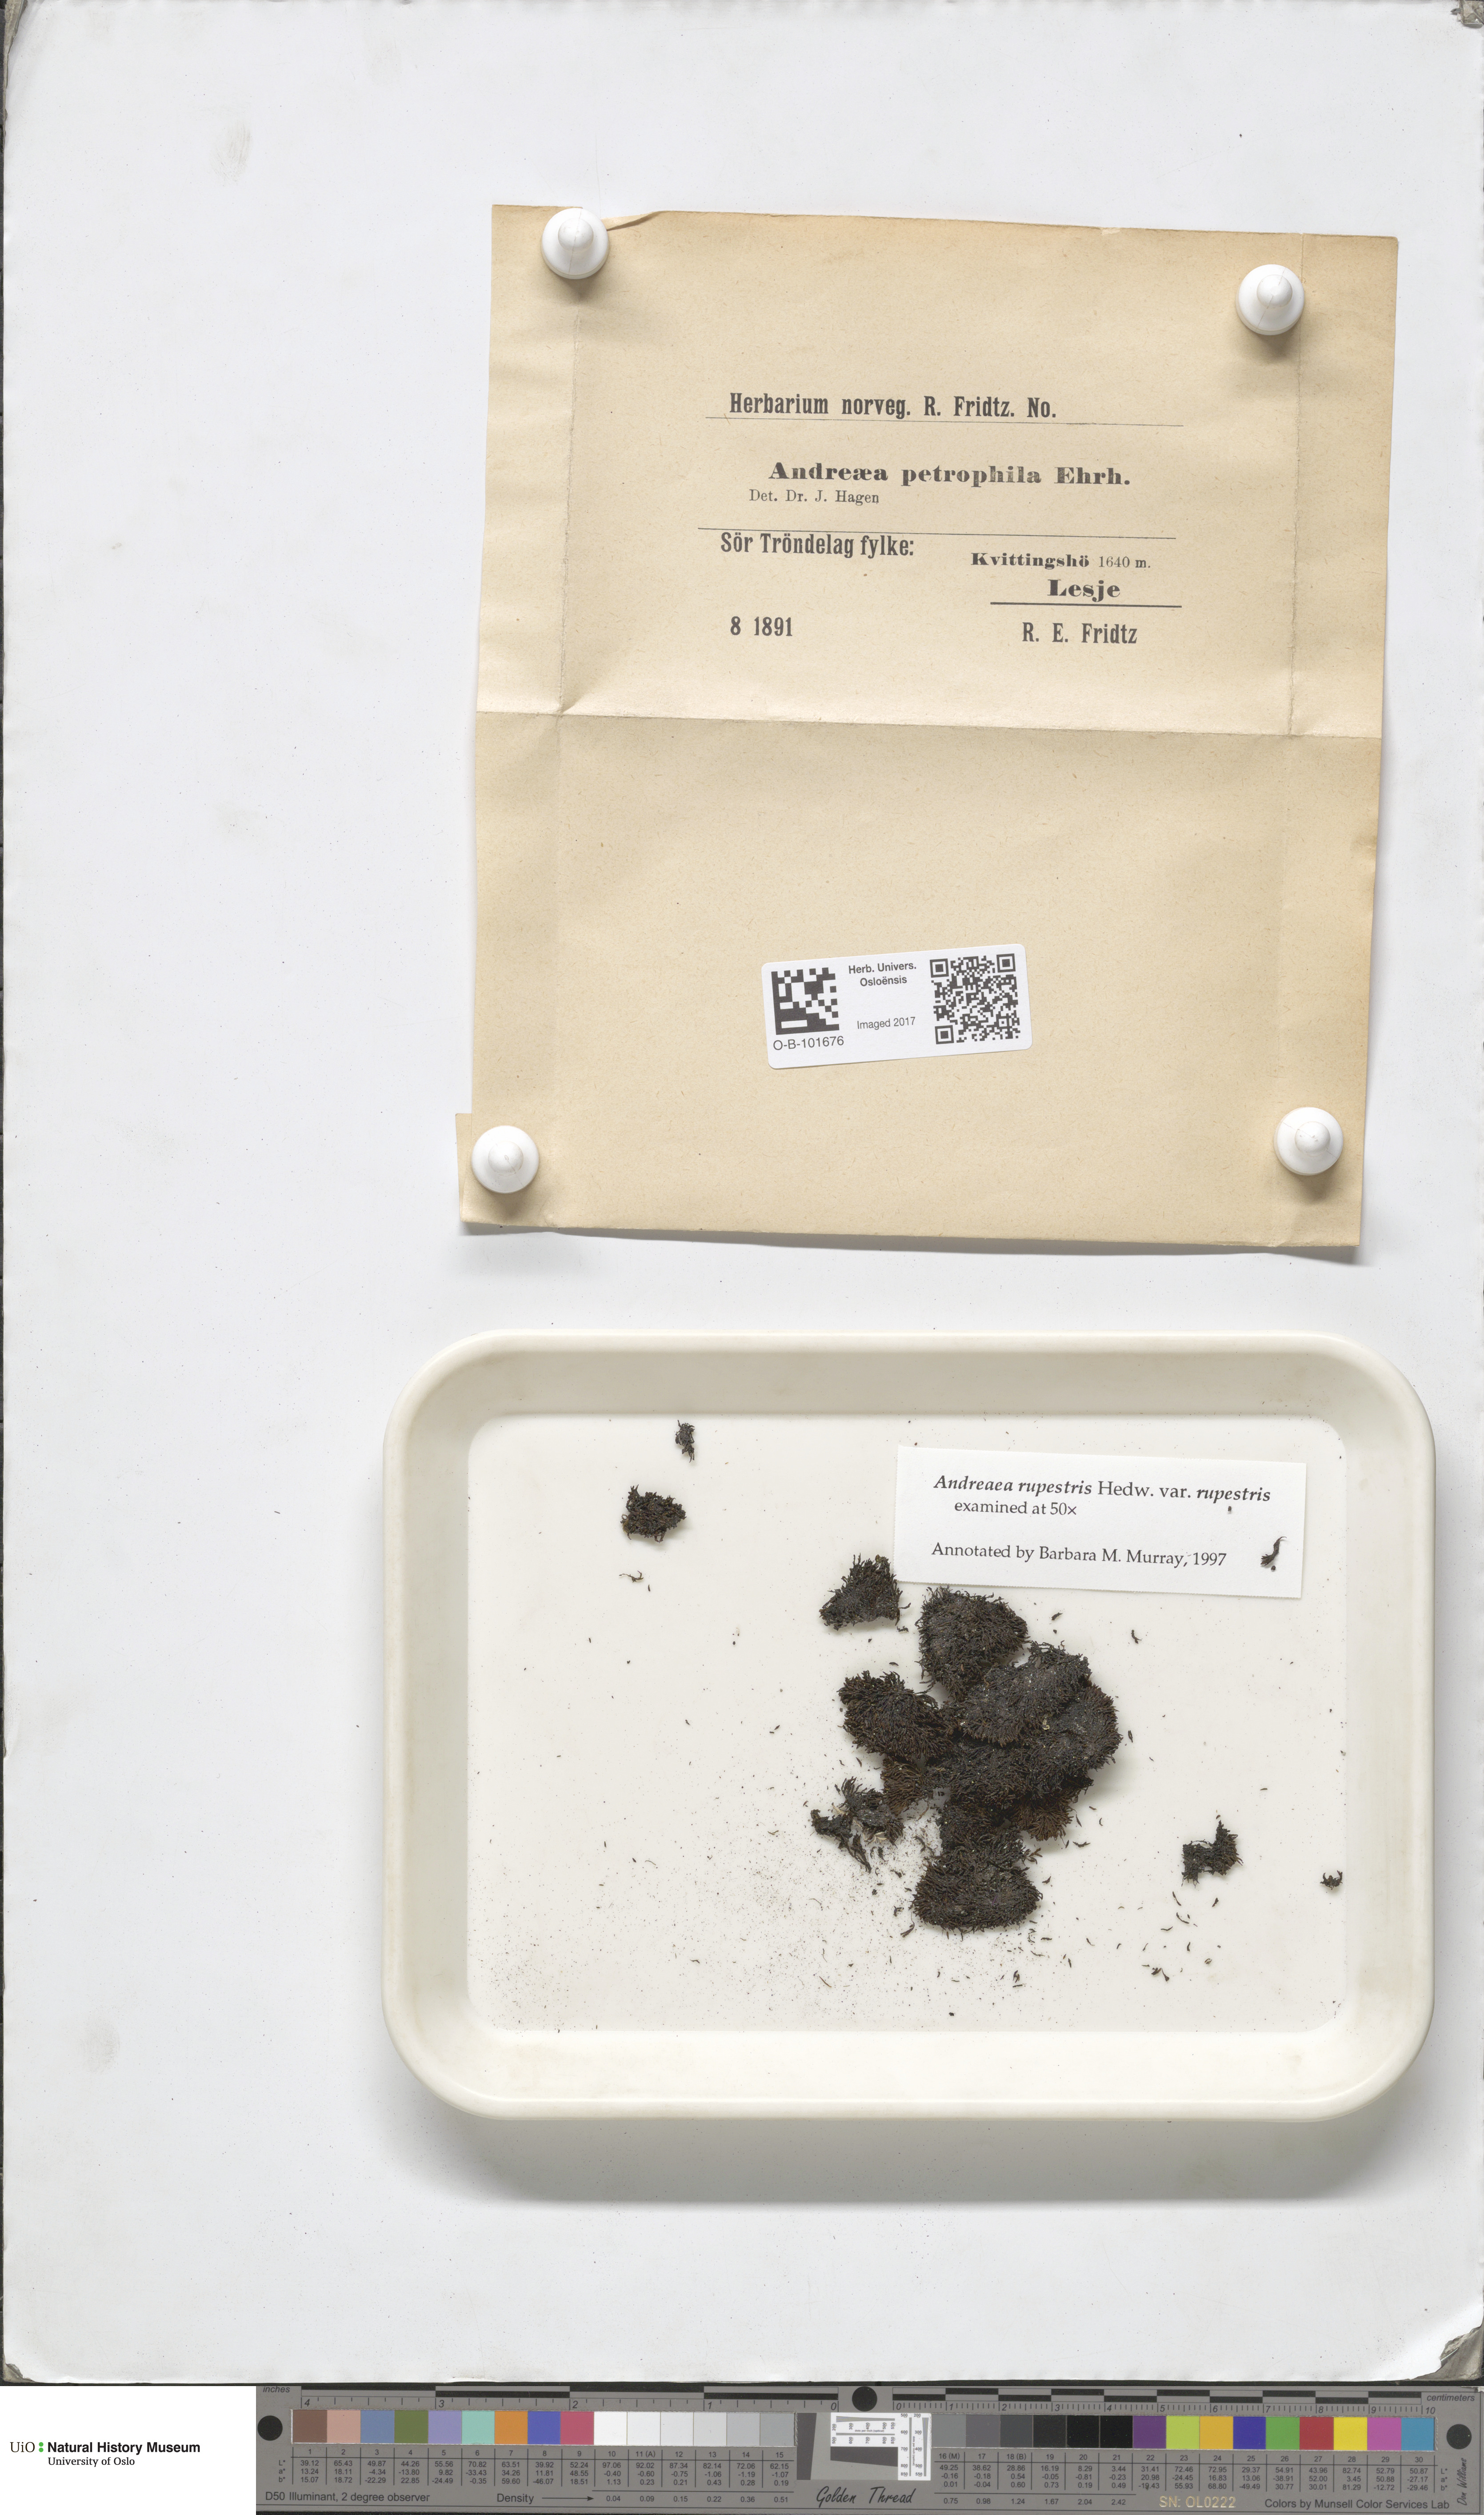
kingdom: Plantae
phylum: Bryophyta
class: Andreaeopsida
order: Andreaeales
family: Andreaeaceae
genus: Andreaea
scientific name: Andreaea rupestris
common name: Black rock moss
